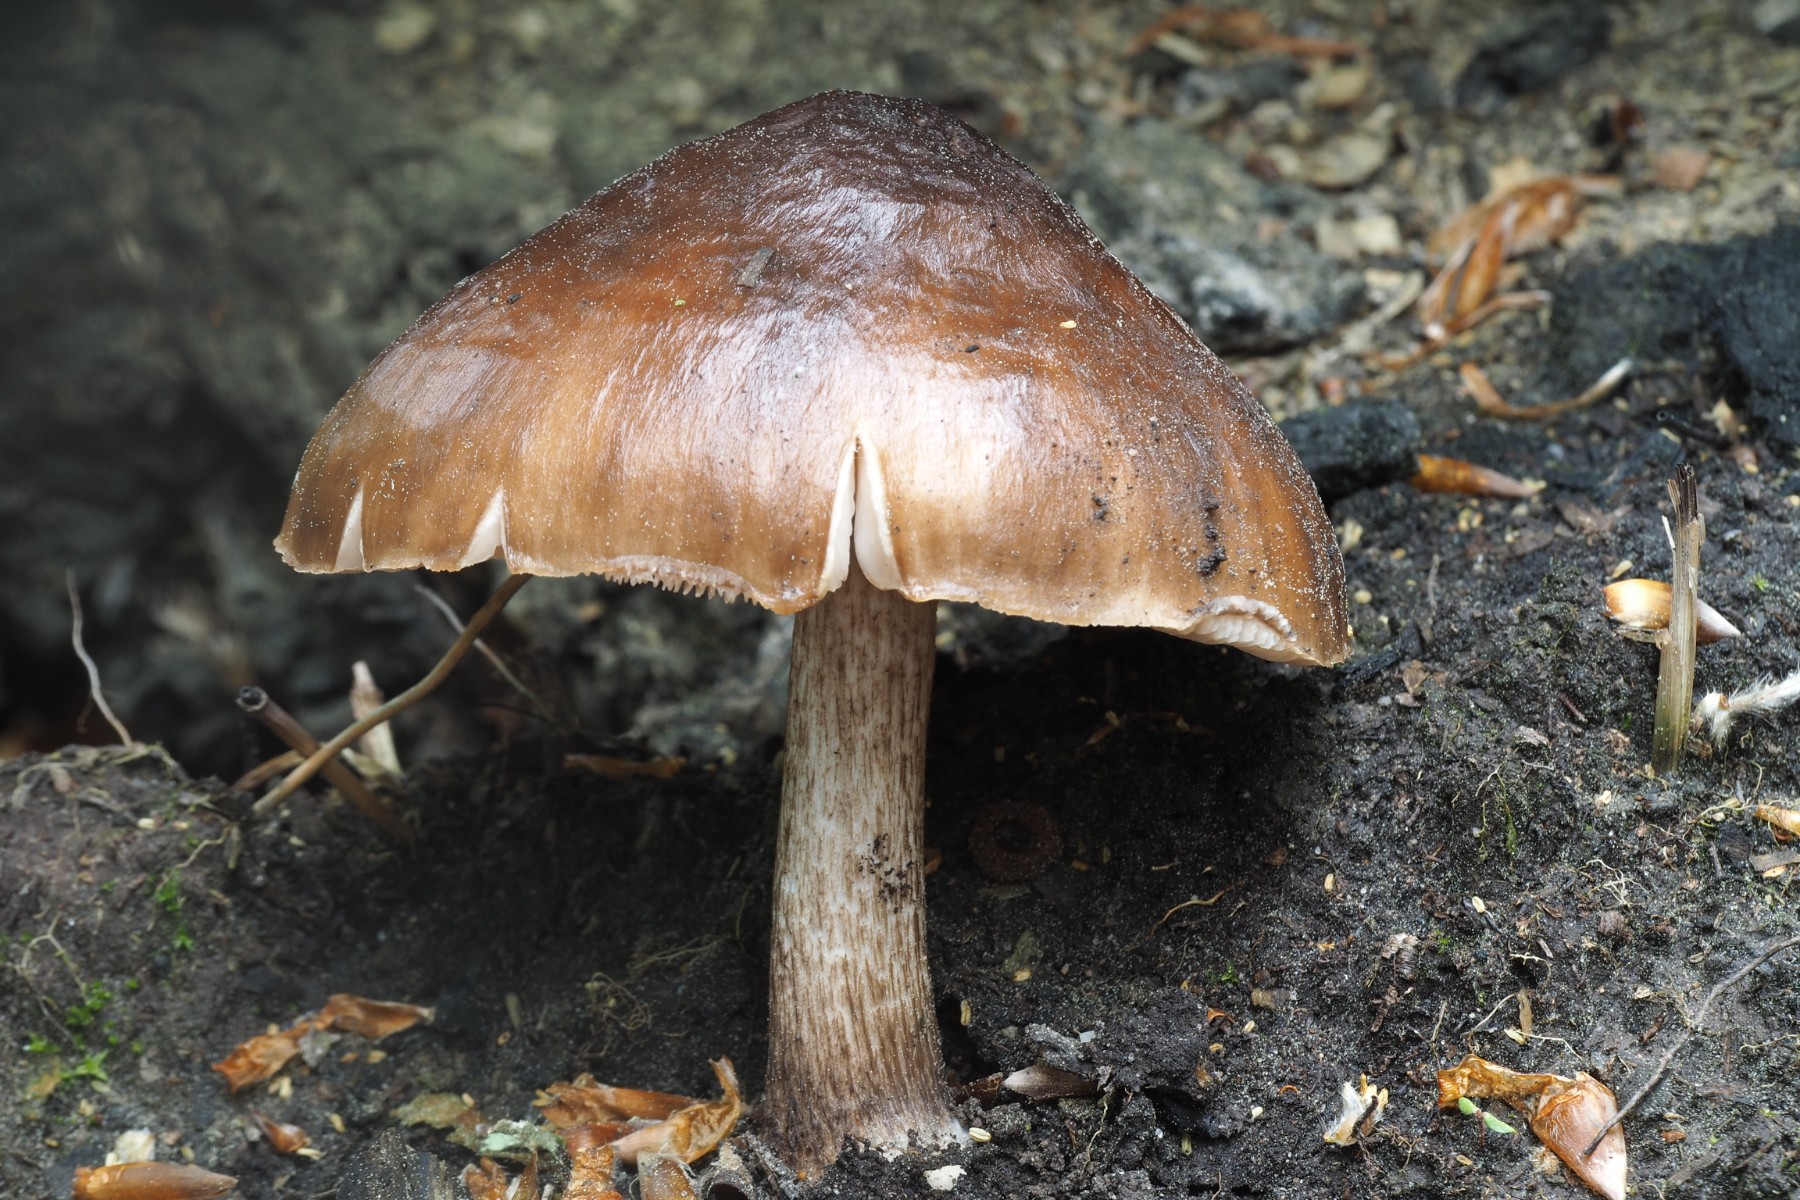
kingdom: Fungi
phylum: Basidiomycota
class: Agaricomycetes
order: Agaricales
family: Pluteaceae
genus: Pluteus
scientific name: Pluteus cervinus
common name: sodfarvet skærmhat
